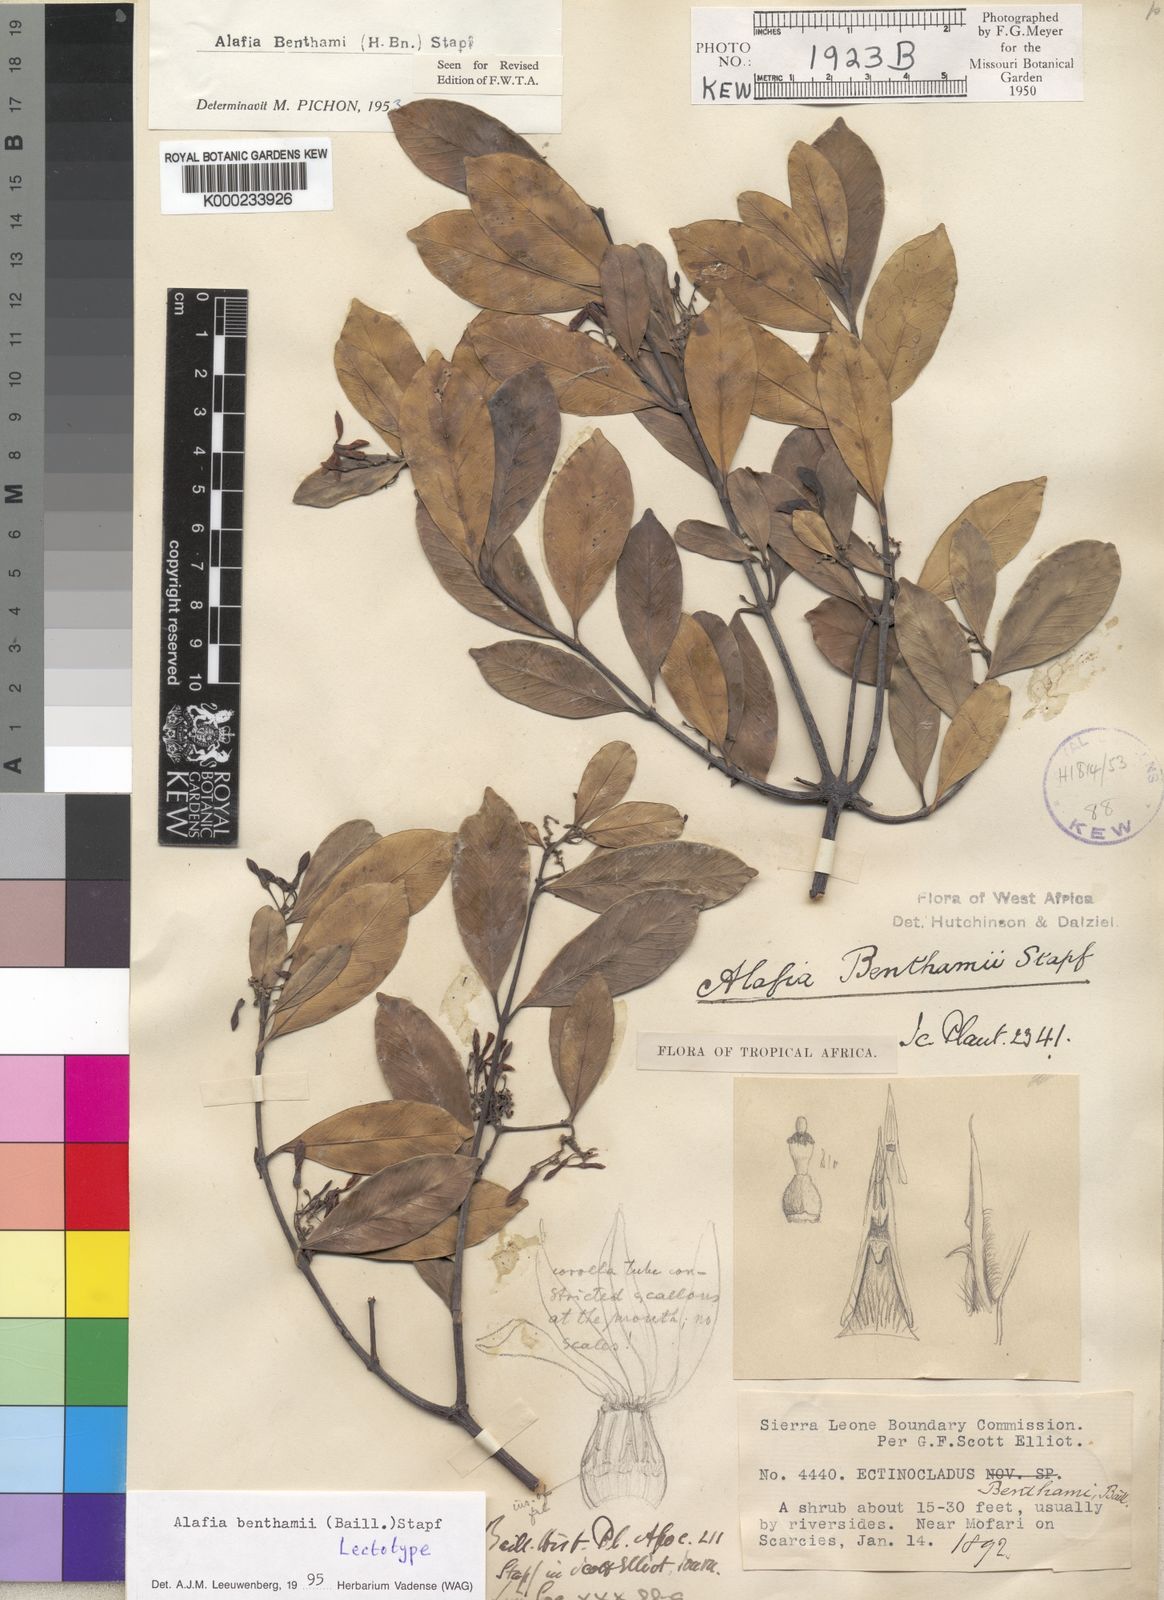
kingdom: Plantae
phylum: Tracheophyta
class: Magnoliopsida
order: Gentianales
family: Apocynaceae
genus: Alafia
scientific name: Alafia benthamii
